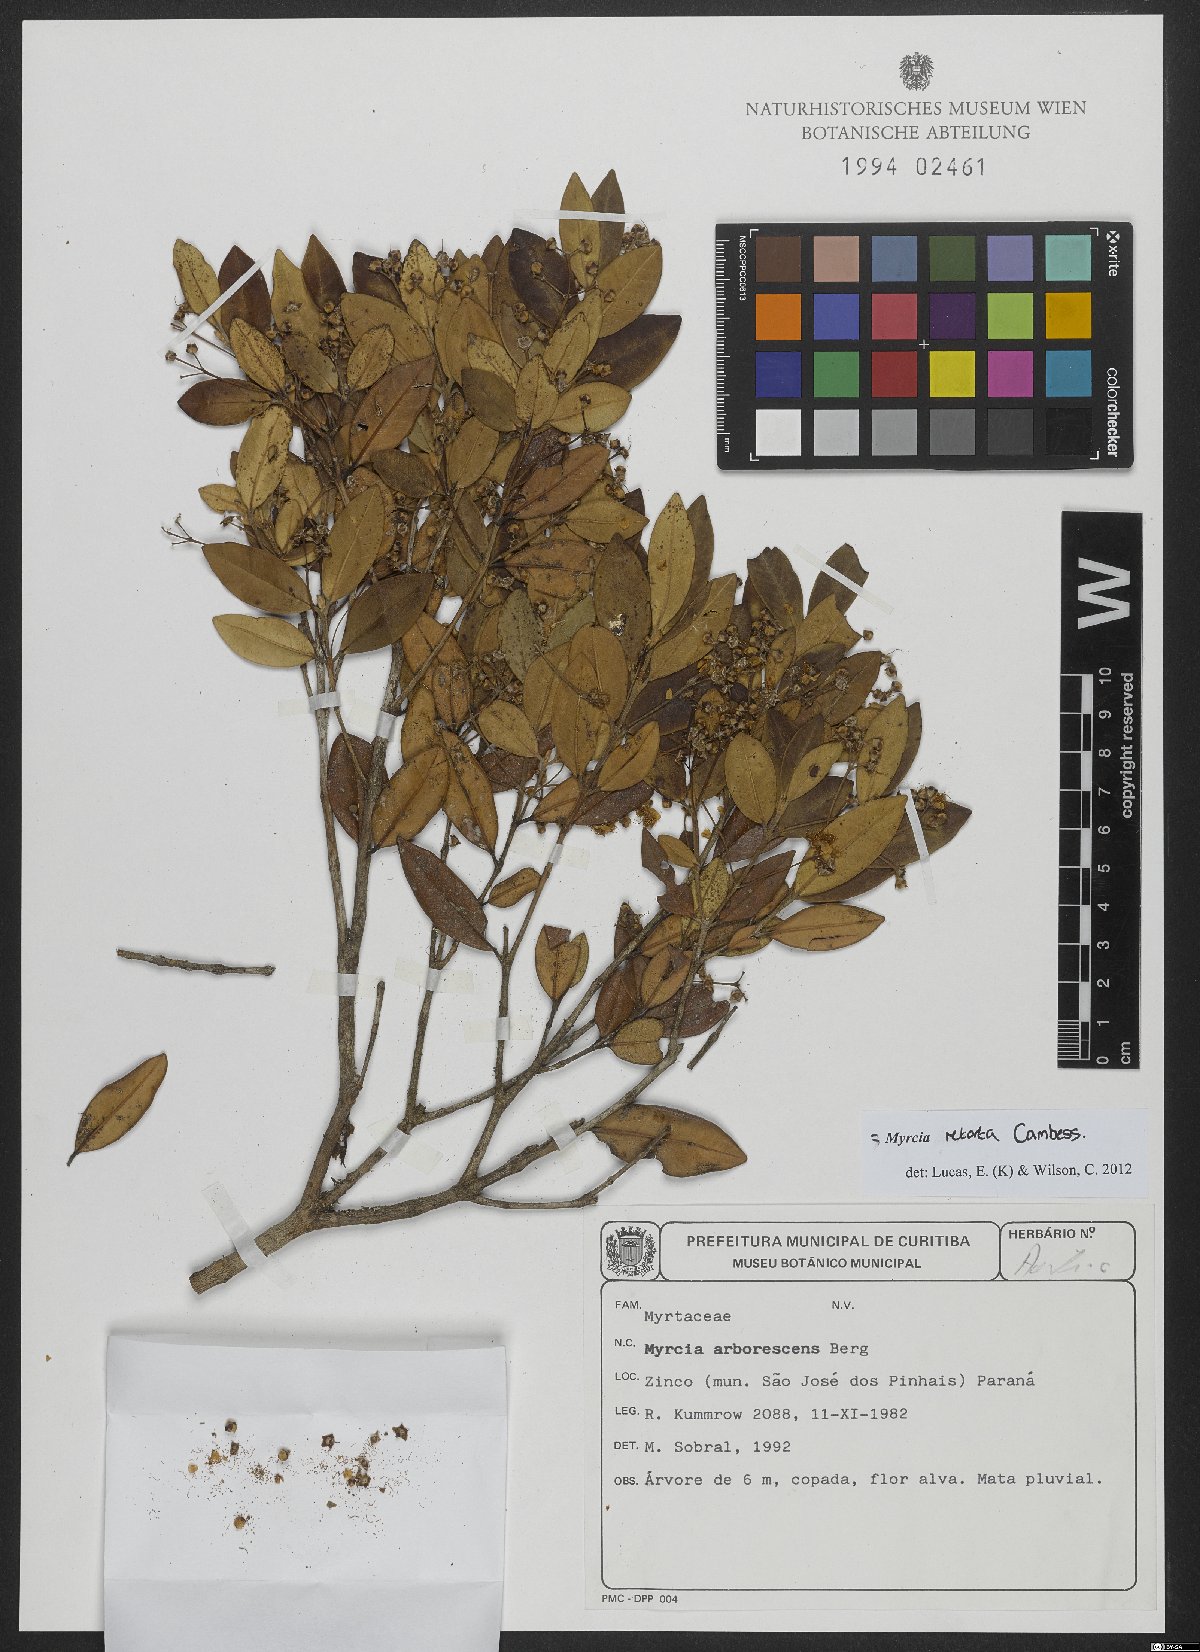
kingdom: Plantae
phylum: Tracheophyta
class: Magnoliopsida
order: Myrtales
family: Myrtaceae
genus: Myrcia
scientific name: Myrcia retorta
